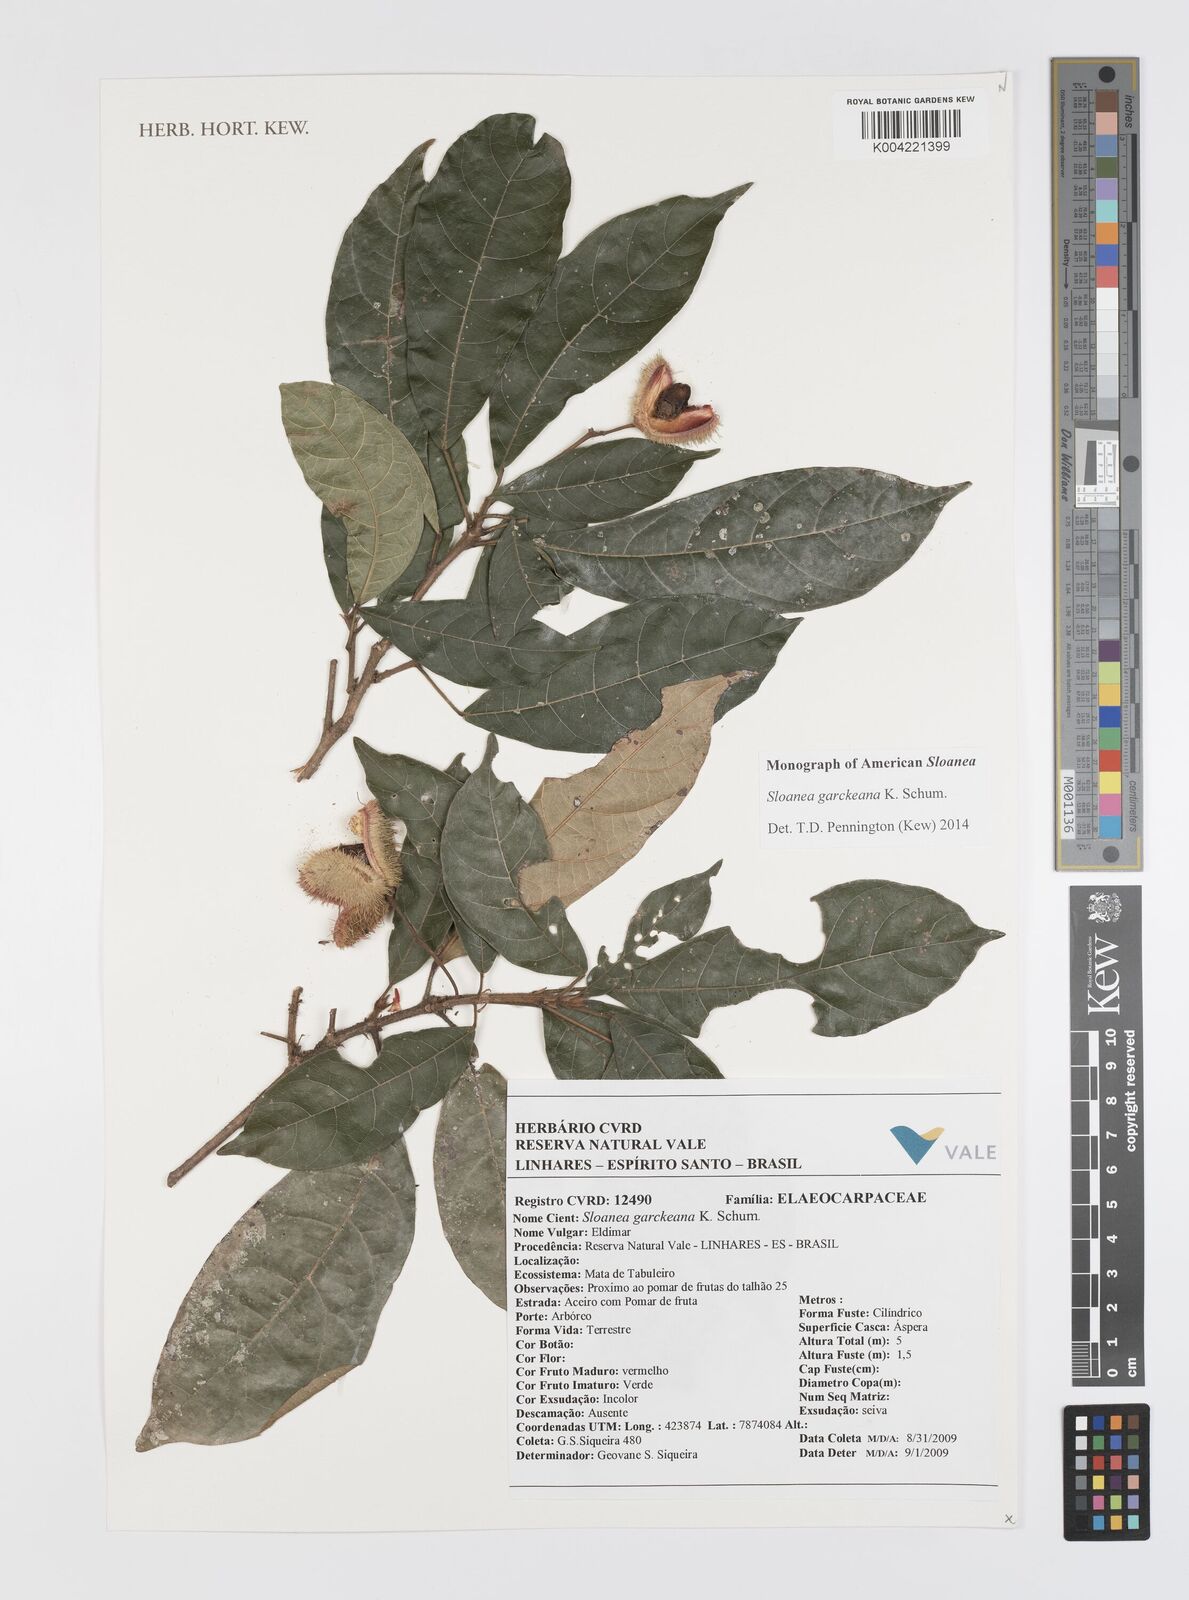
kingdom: Plantae
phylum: Tracheophyta
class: Magnoliopsida
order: Oxalidales
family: Elaeocarpaceae
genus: Sloanea
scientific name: Sloanea garckeana
